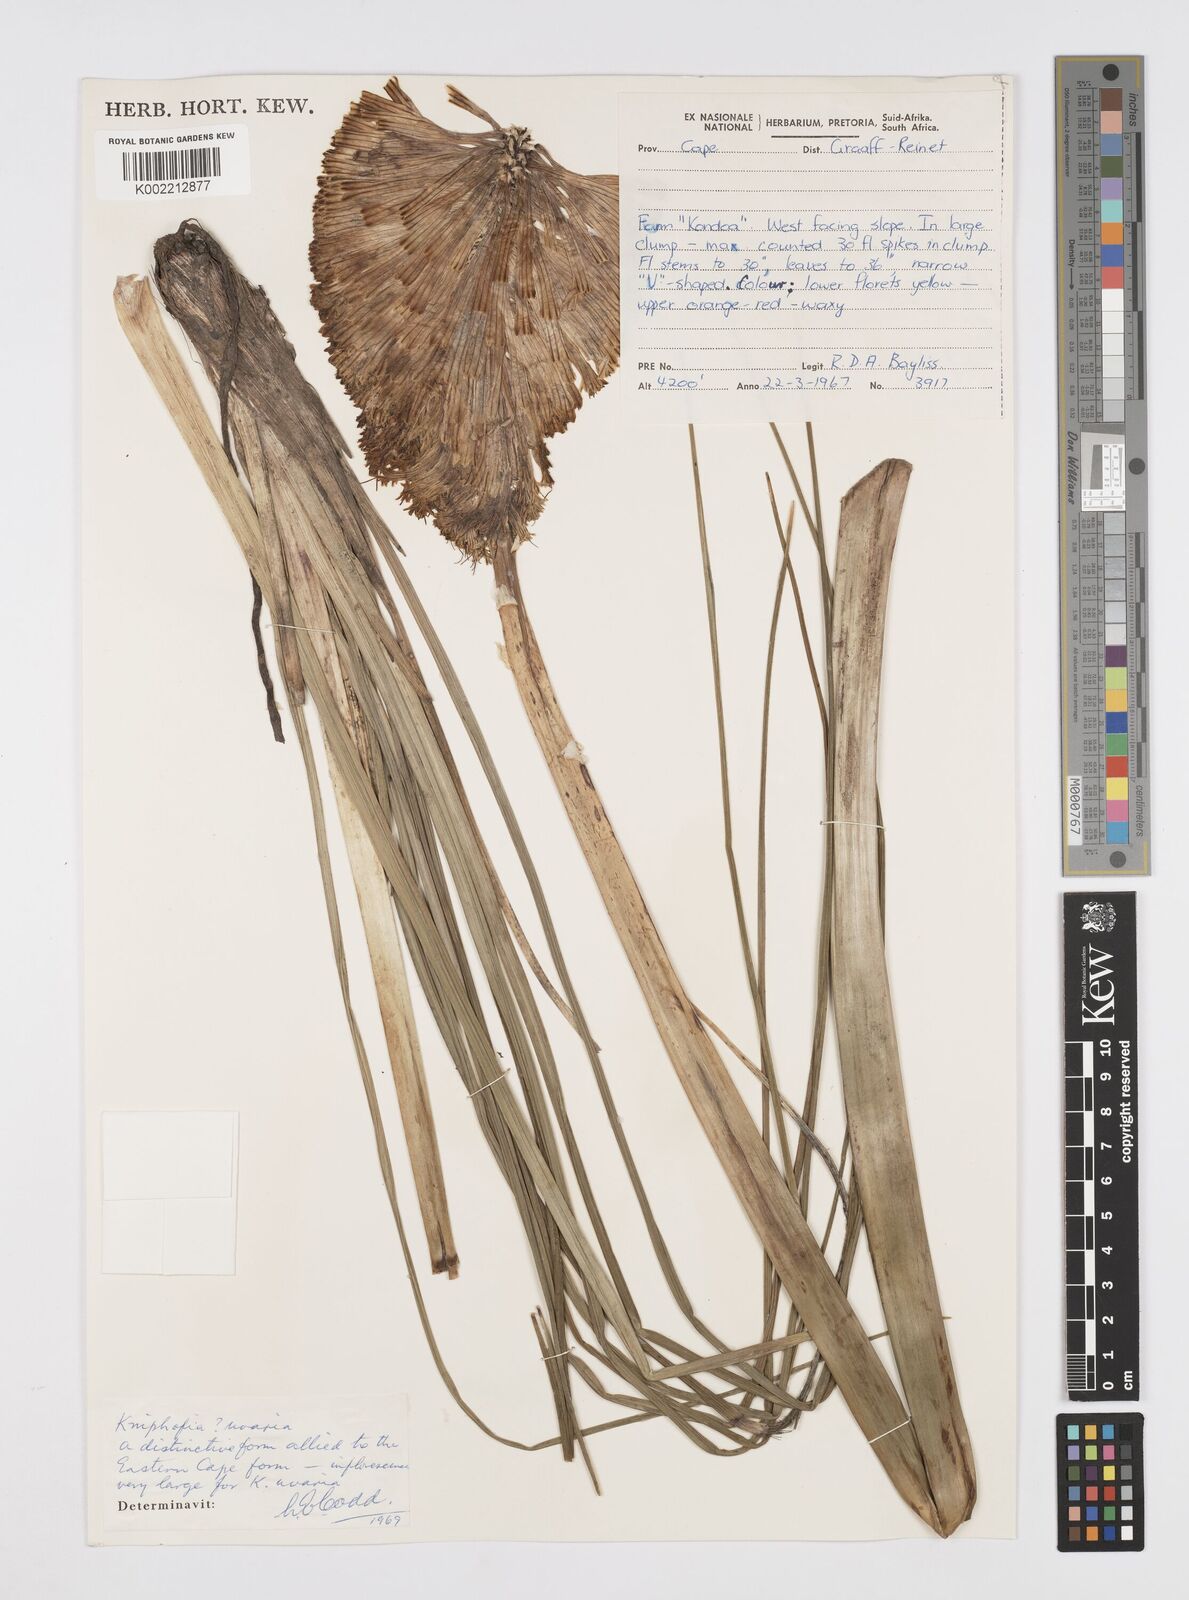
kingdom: Plantae
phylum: Tracheophyta
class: Liliopsida
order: Asparagales
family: Asphodelaceae
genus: Kniphofia
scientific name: Kniphofia uvaria
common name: Red-hot-poker
